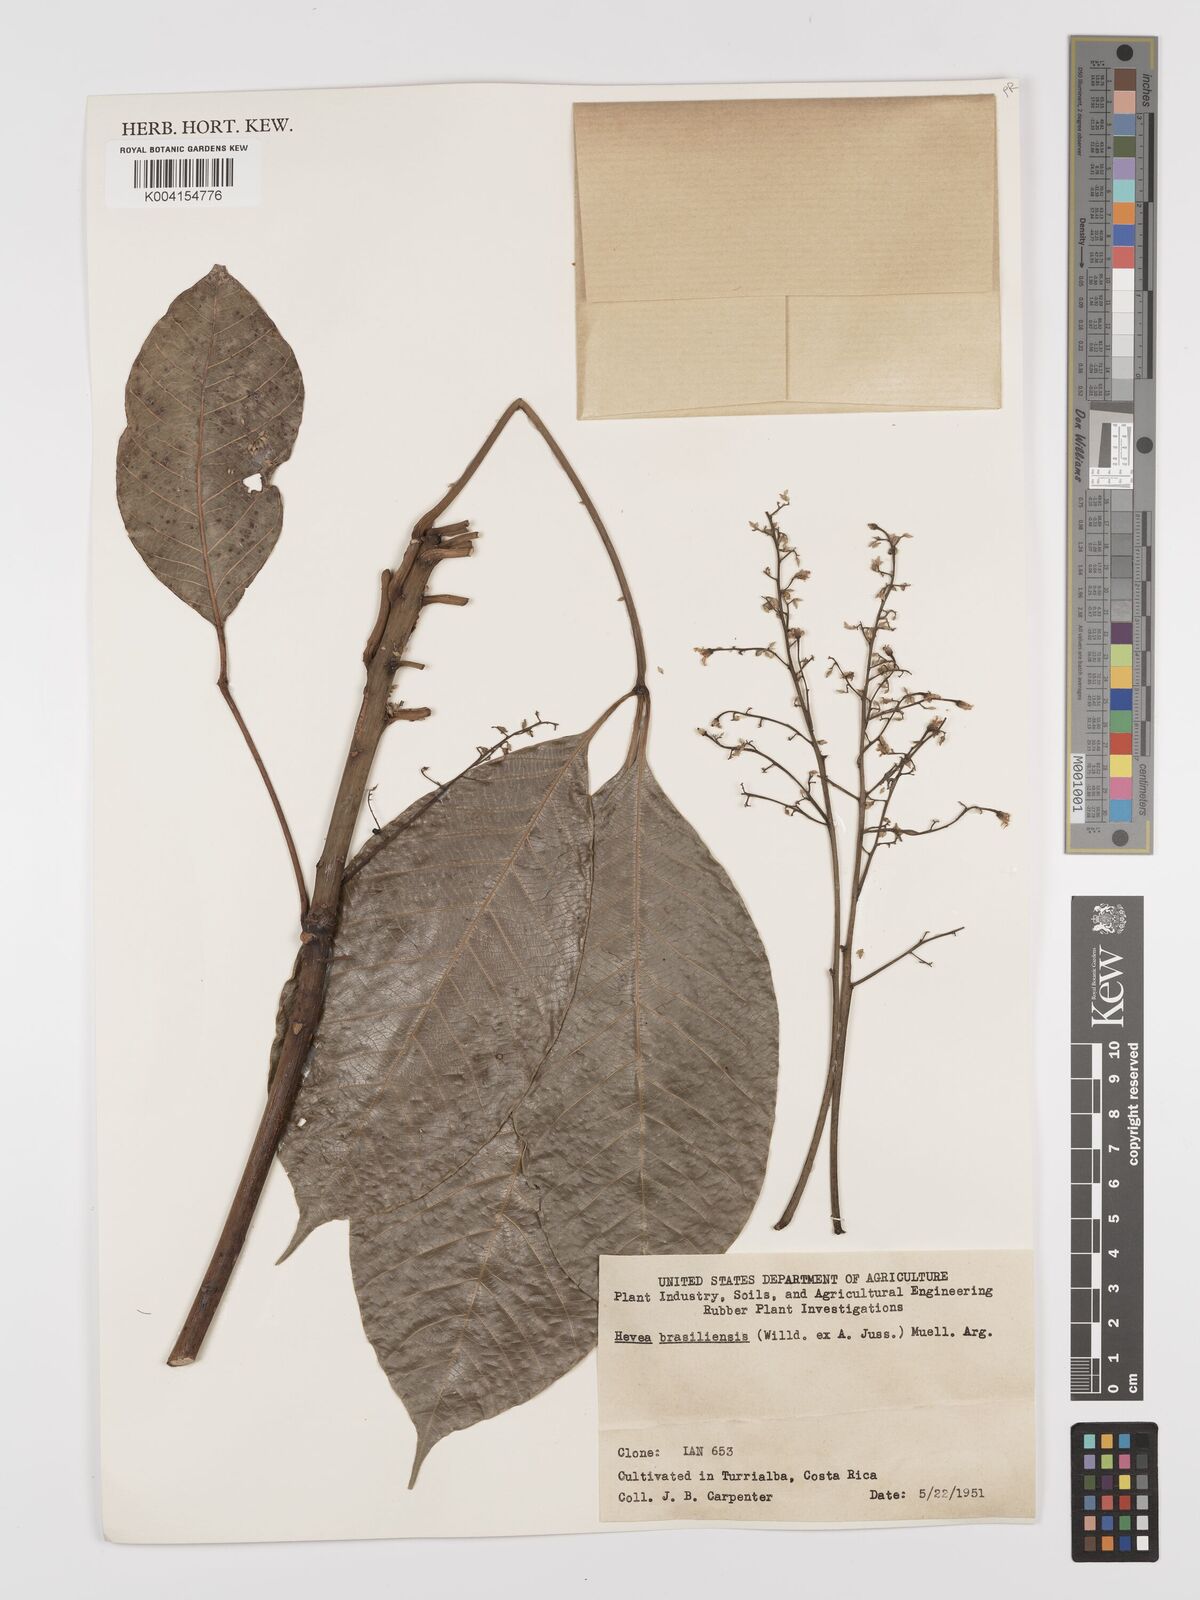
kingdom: Plantae
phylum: Tracheophyta
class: Magnoliopsida
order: Malpighiales
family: Euphorbiaceae
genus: Hevea
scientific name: Hevea brasiliensis
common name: Natural rubber
